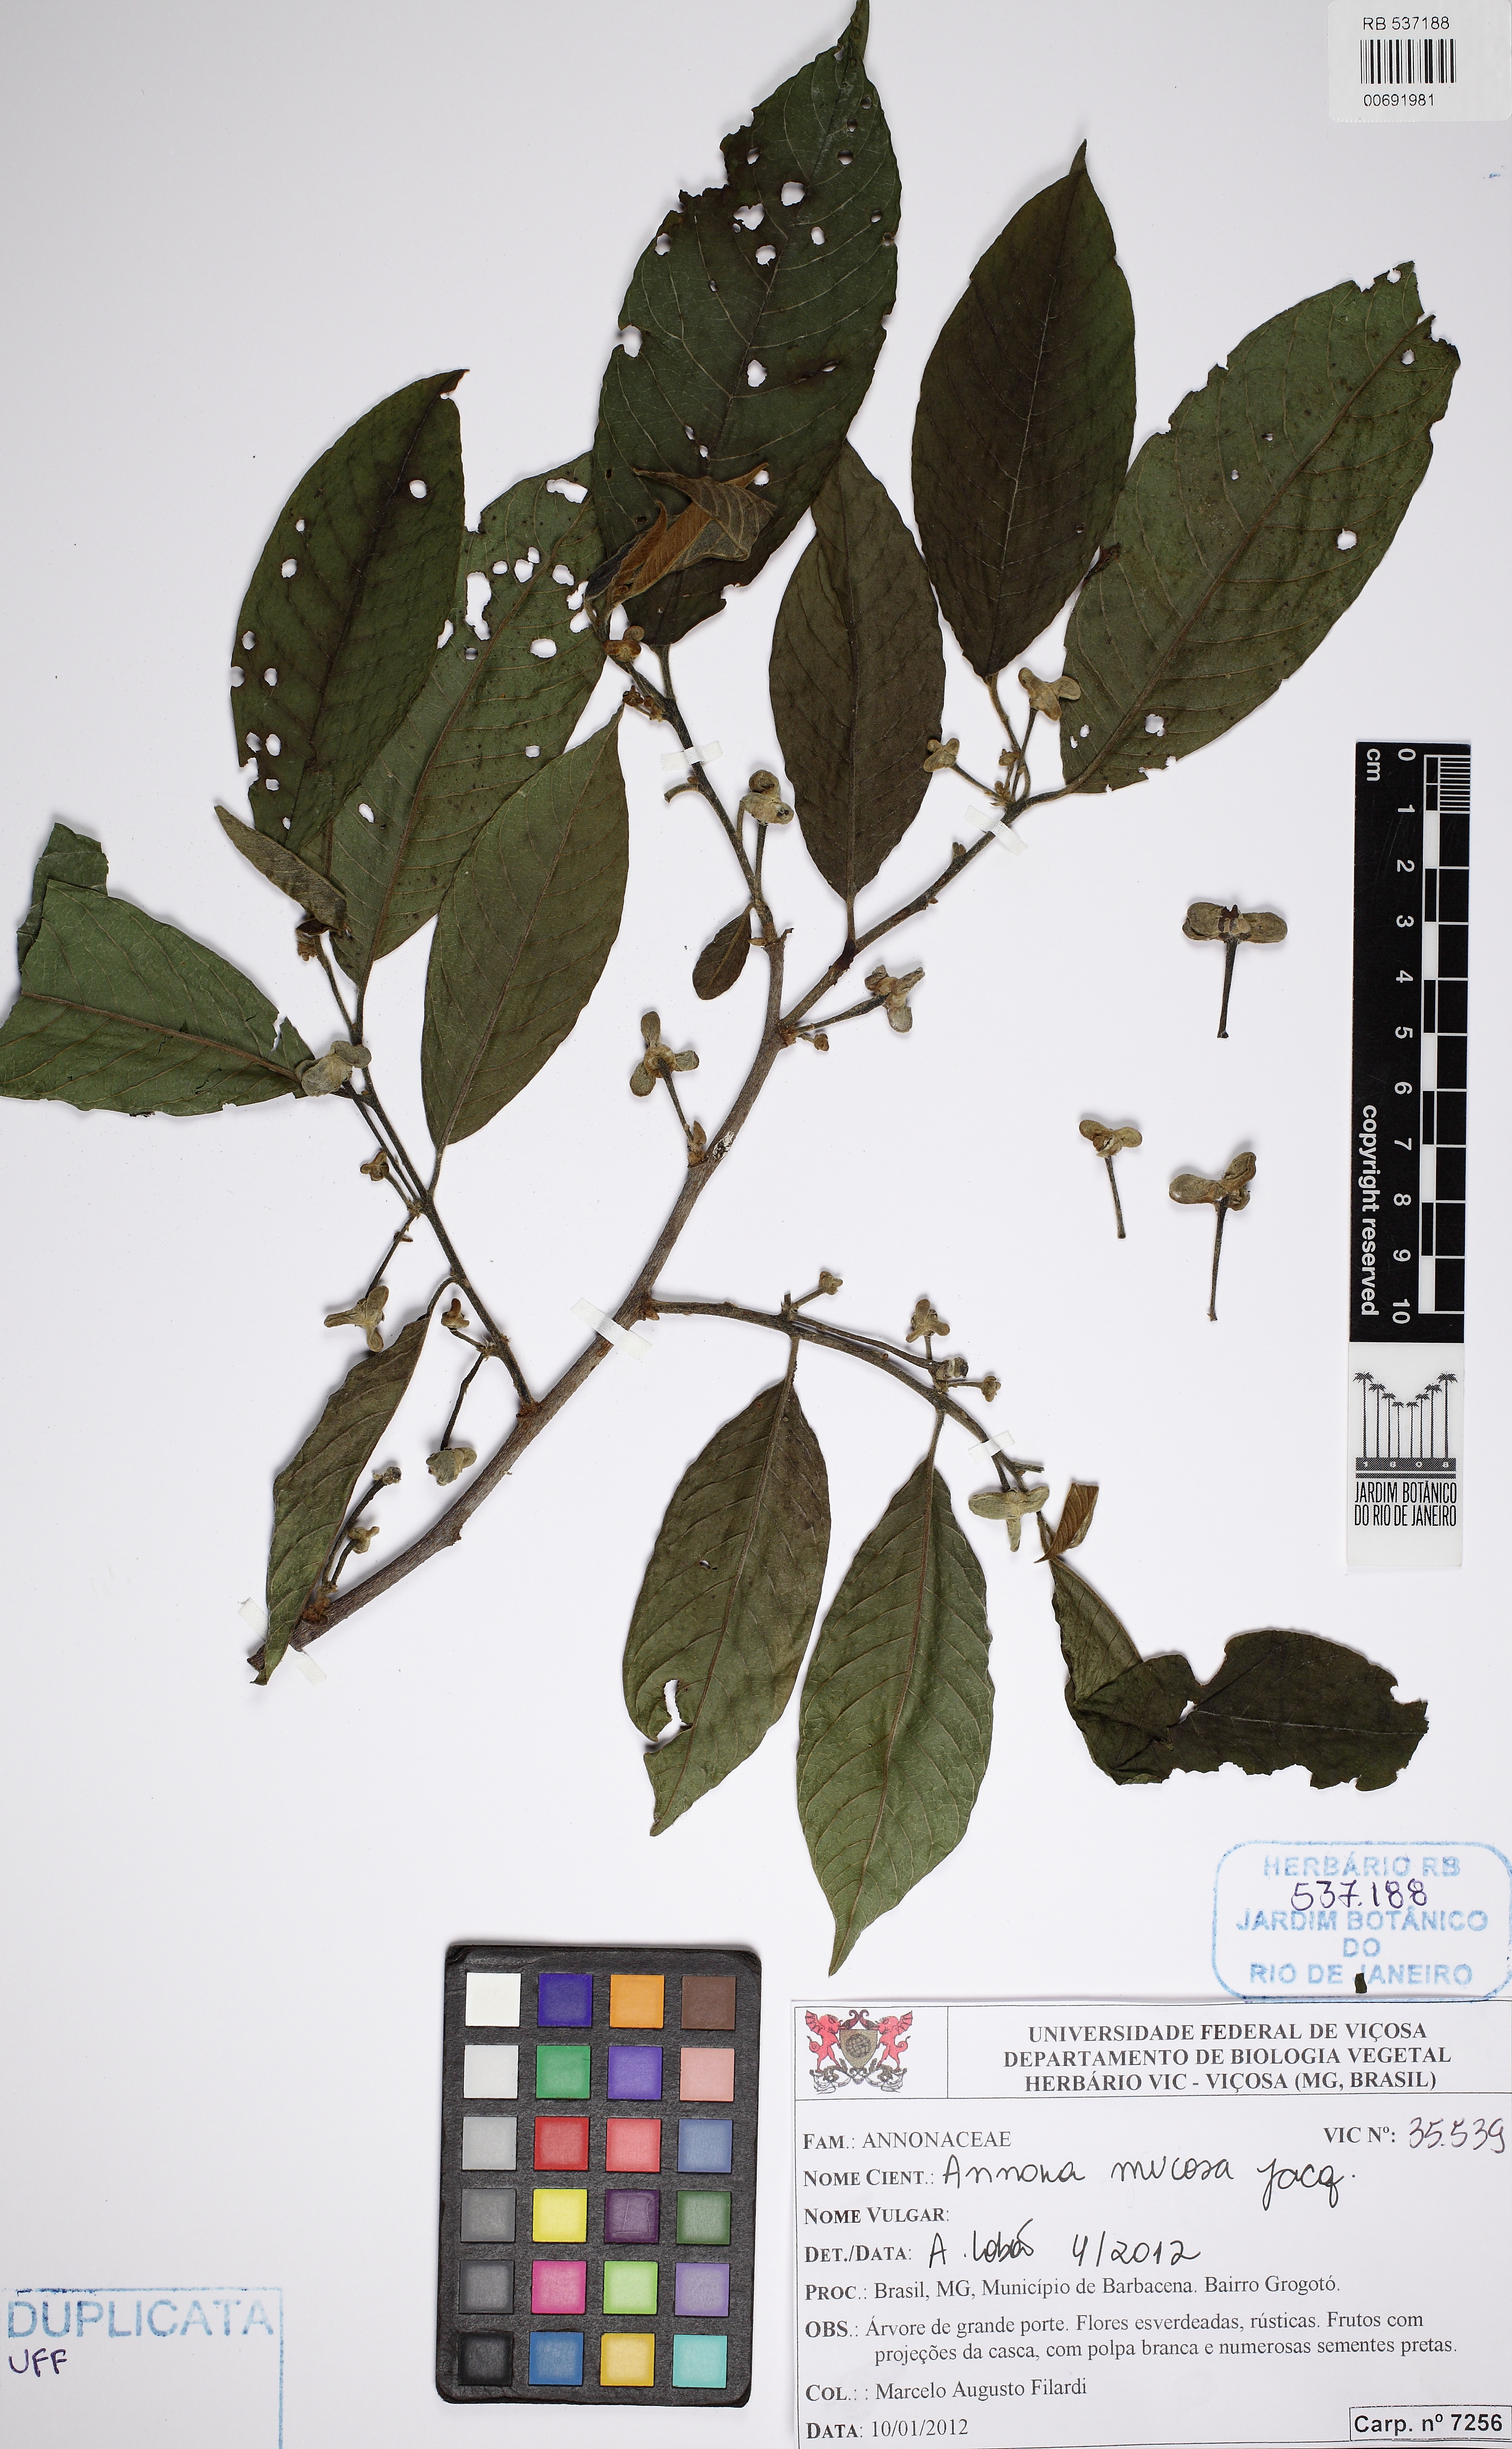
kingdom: Plantae
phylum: Tracheophyta
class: Magnoliopsida
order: Magnoliales
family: Annonaceae
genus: Annona
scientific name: Annona mucosa
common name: Sugar apple
